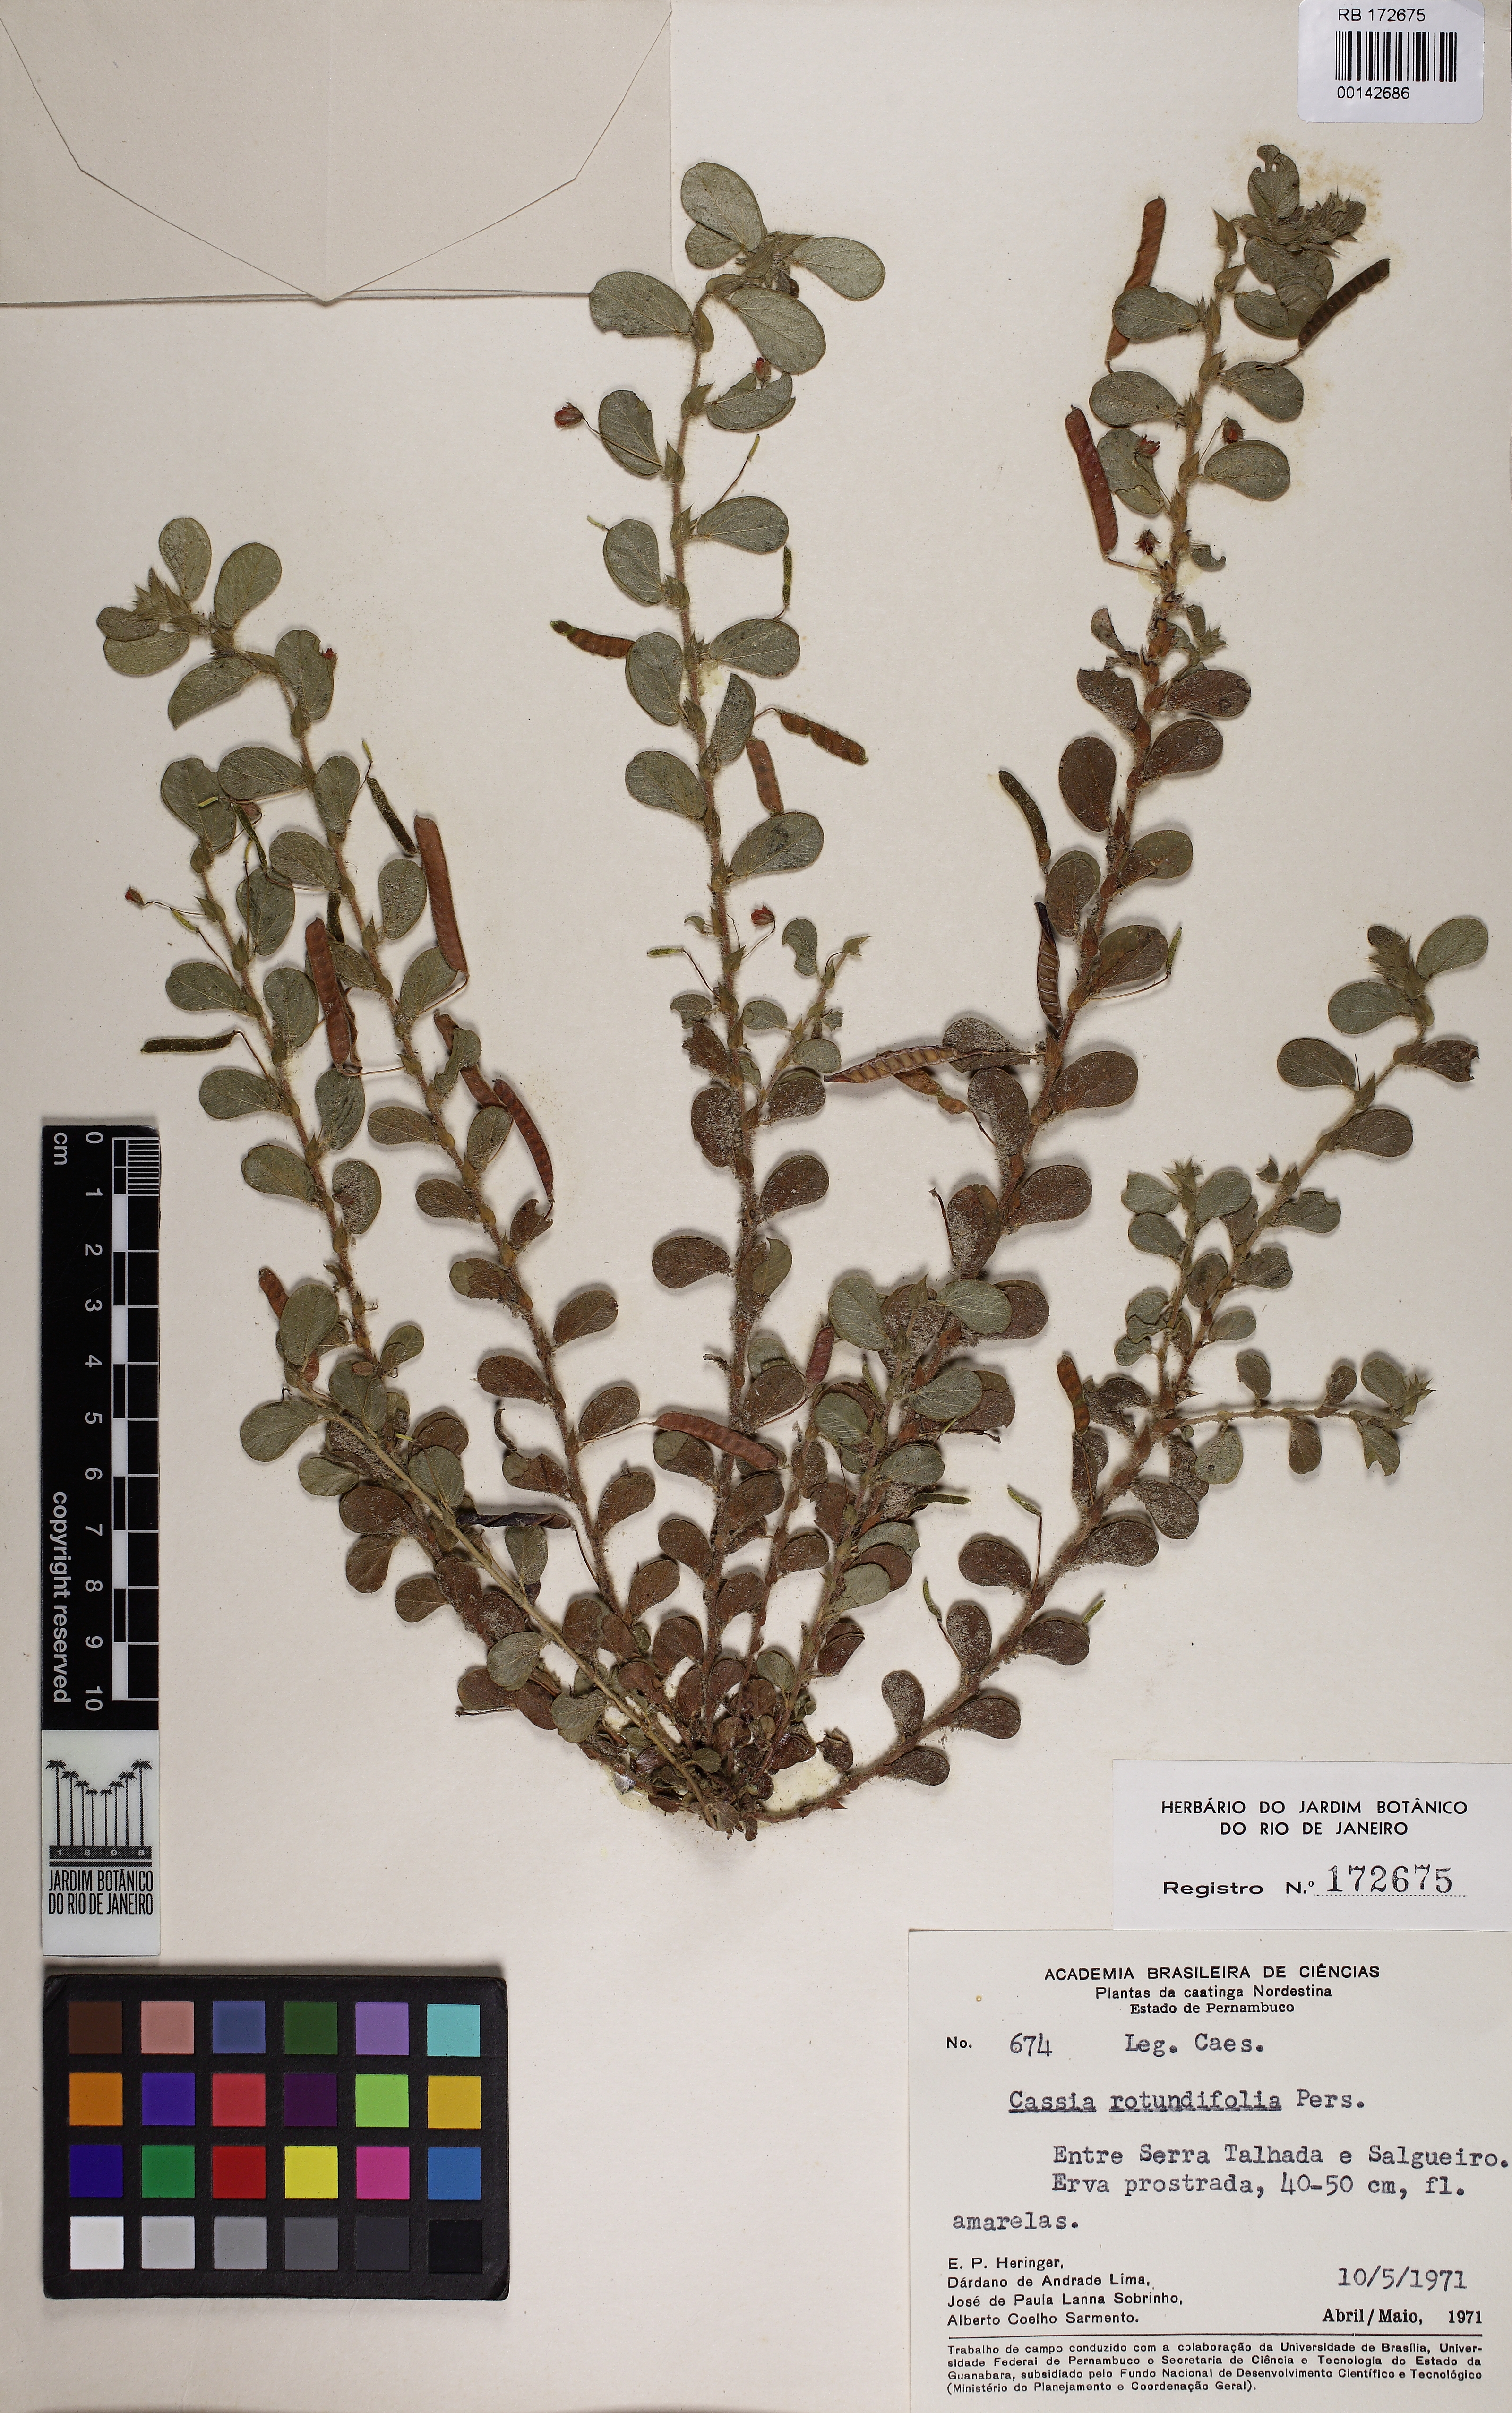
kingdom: Plantae
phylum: Tracheophyta
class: Magnoliopsida
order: Fabales
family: Fabaceae
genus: Chamaecrista
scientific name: Chamaecrista rotundifolia
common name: Round-leaf cassia
